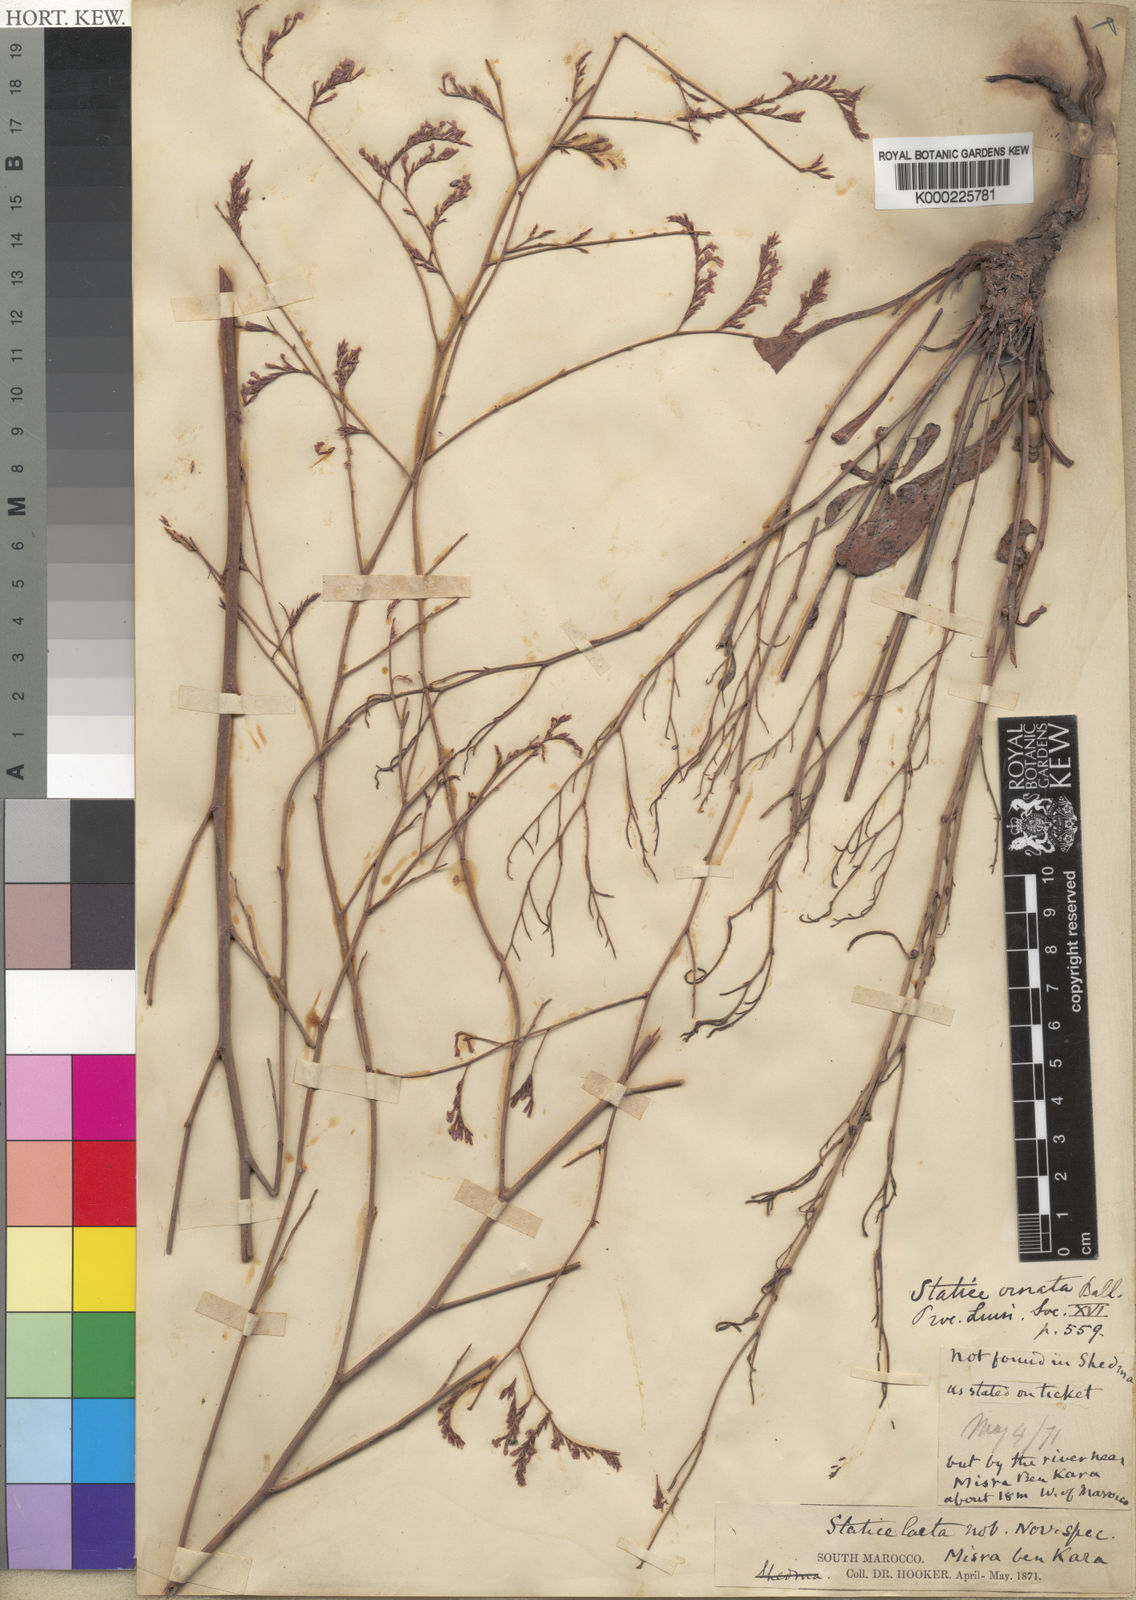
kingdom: Plantae
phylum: Tracheophyta
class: Magnoliopsida
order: Caryophyllales
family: Plumbaginaceae
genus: Limonium
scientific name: Limonium ornatum
